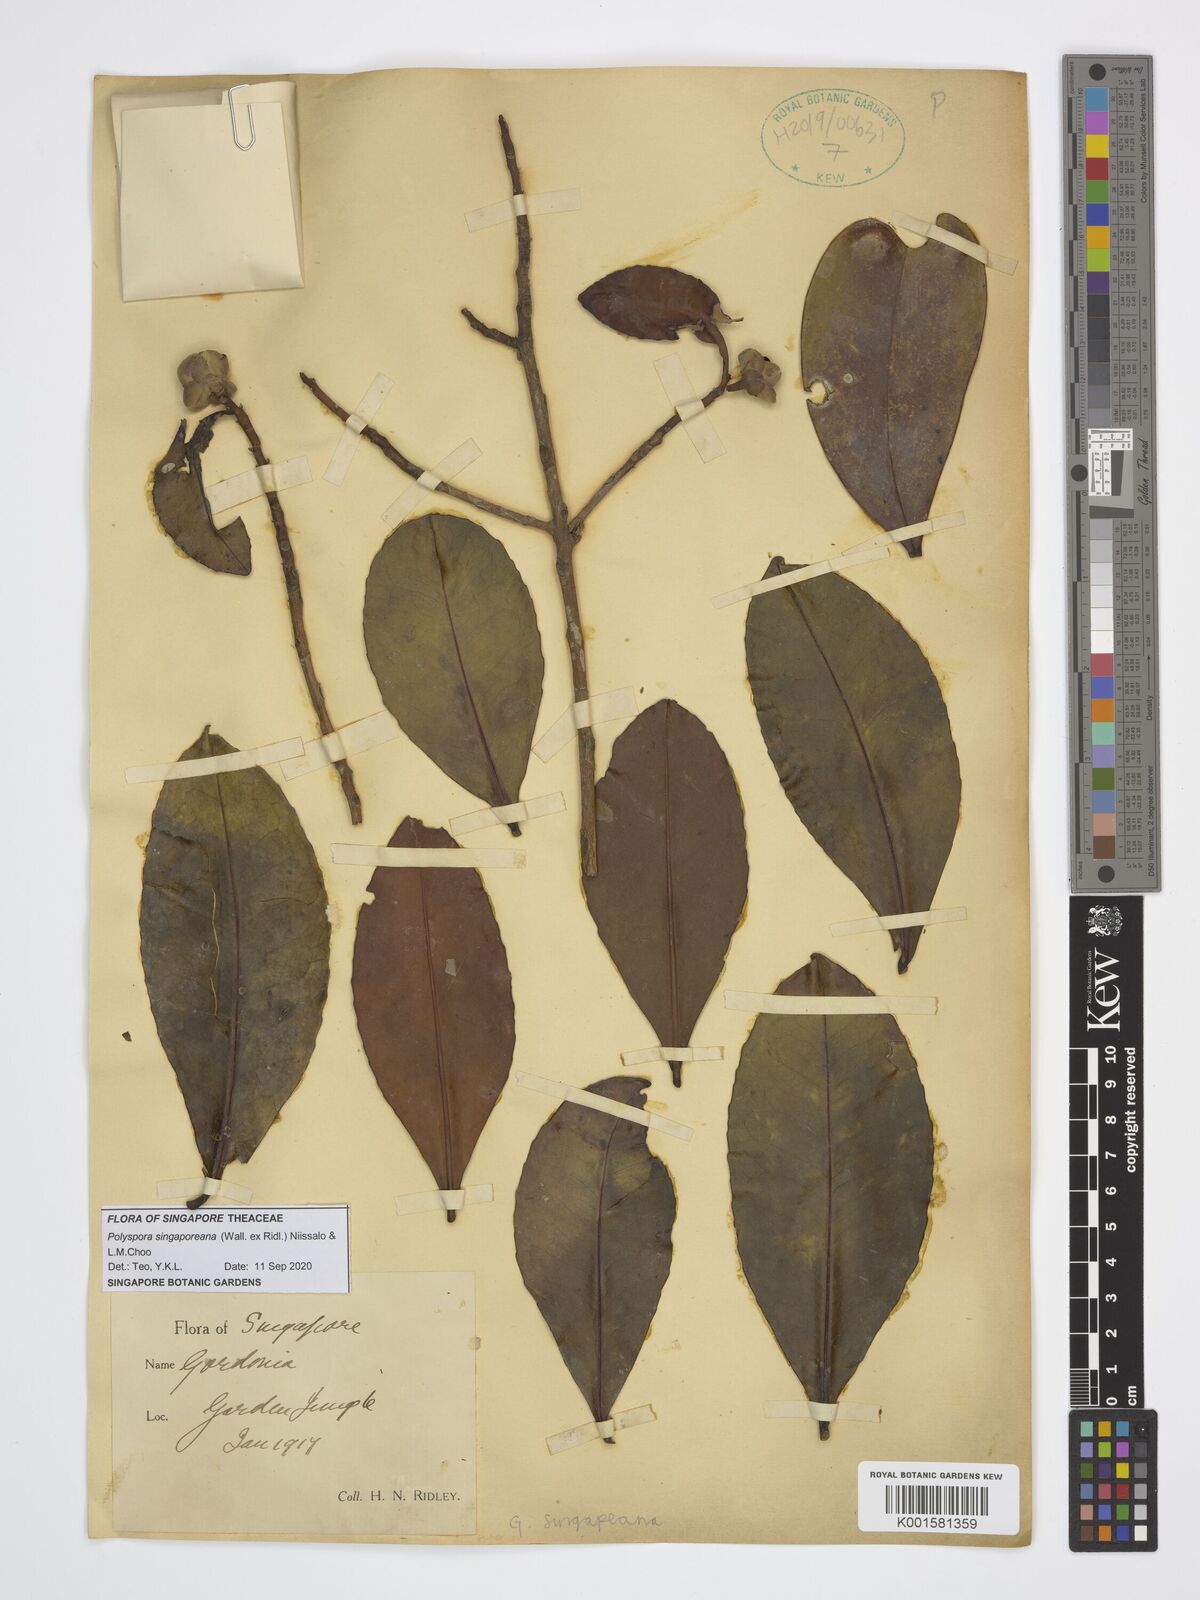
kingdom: Plantae
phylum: Tracheophyta
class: Magnoliopsida
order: Ericales
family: Theaceae
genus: Polyspora
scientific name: Polyspora
